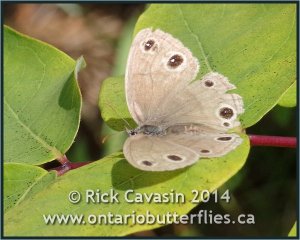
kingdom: Animalia
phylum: Arthropoda
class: Insecta
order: Lepidoptera
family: Nymphalidae
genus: Euptychia
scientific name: Euptychia cymela
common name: Little Wood Satyr
